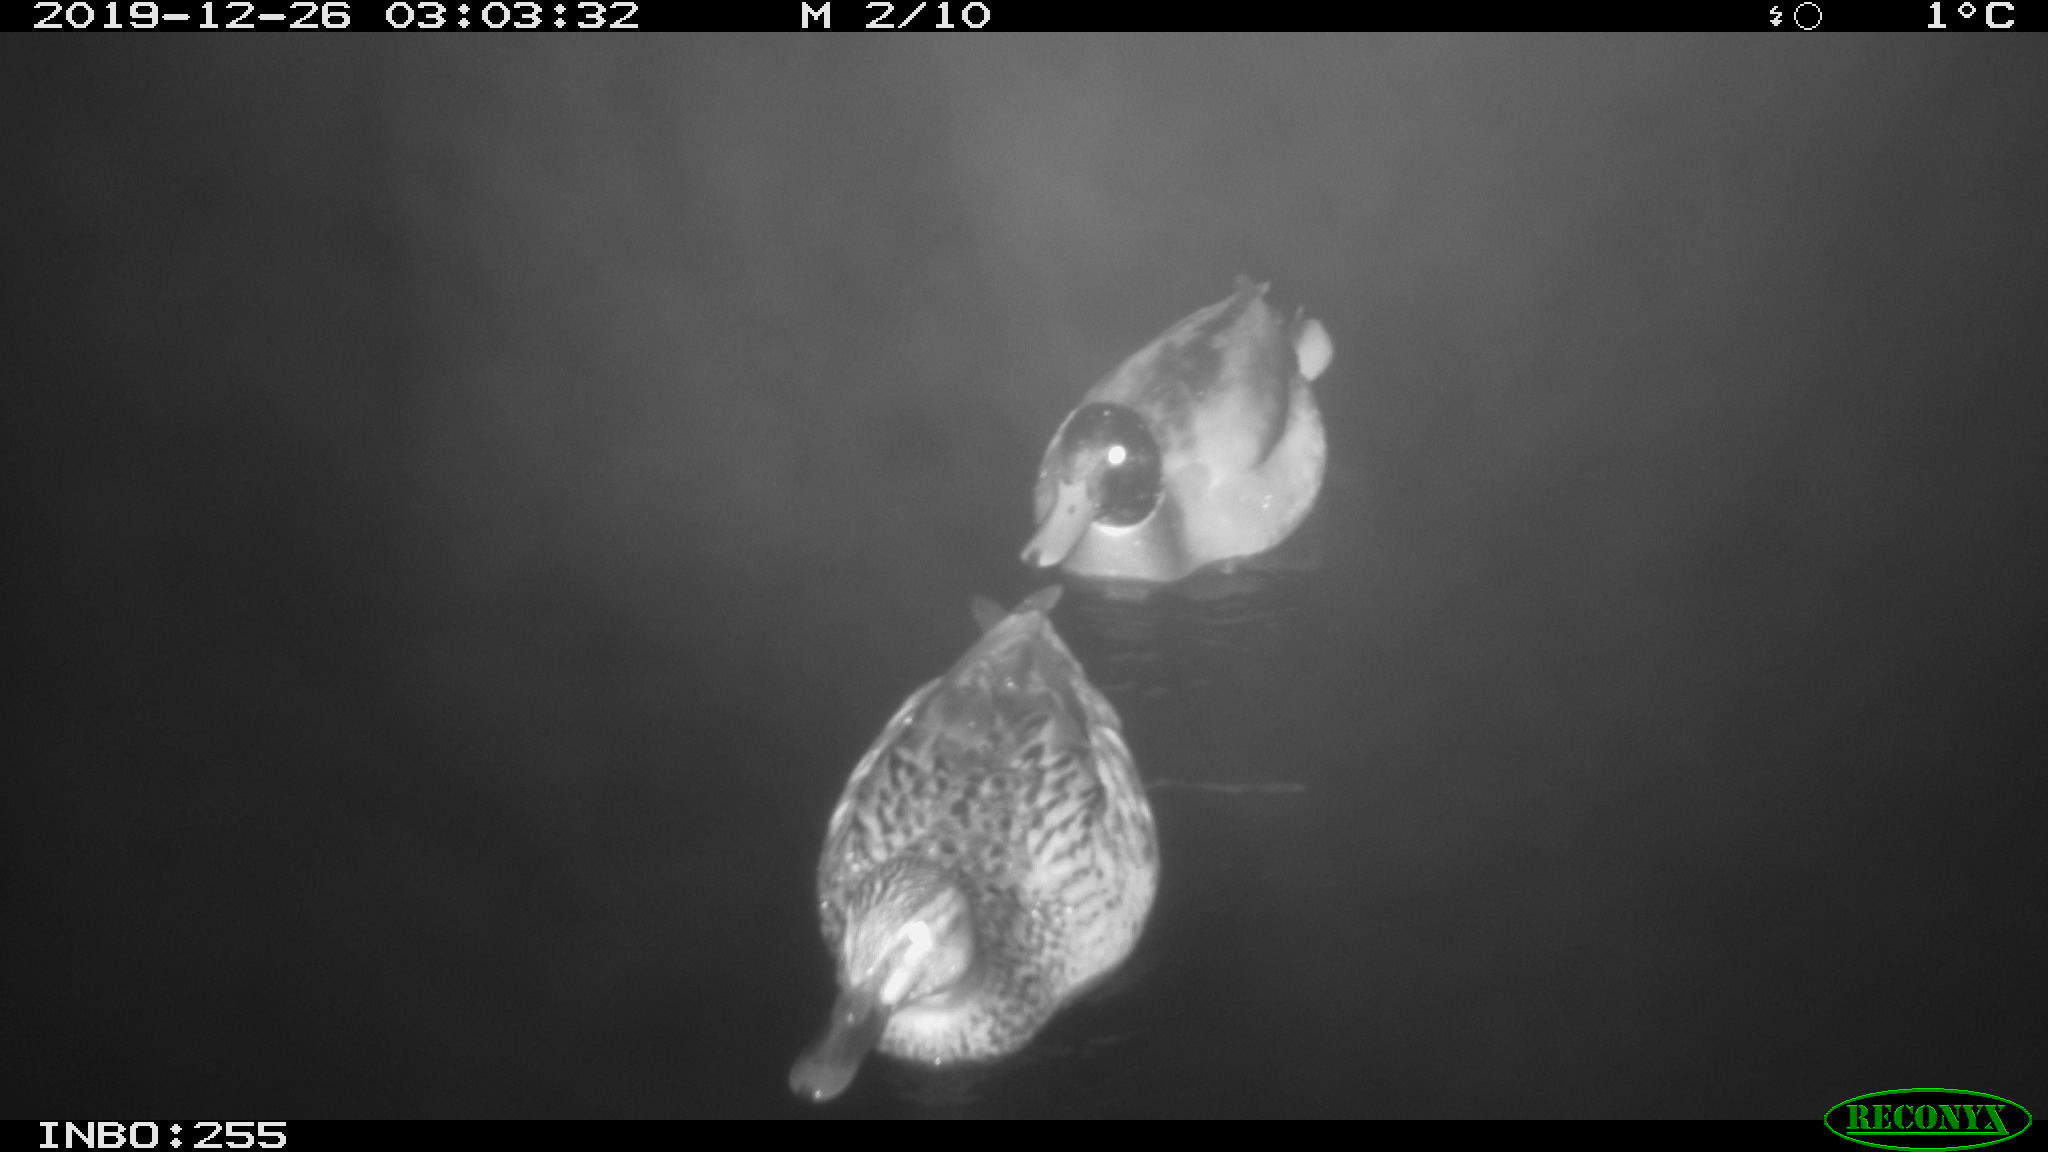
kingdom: Animalia
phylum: Chordata
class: Aves
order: Anseriformes
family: Anatidae
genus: Anas
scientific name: Anas platyrhynchos
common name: Mallard
